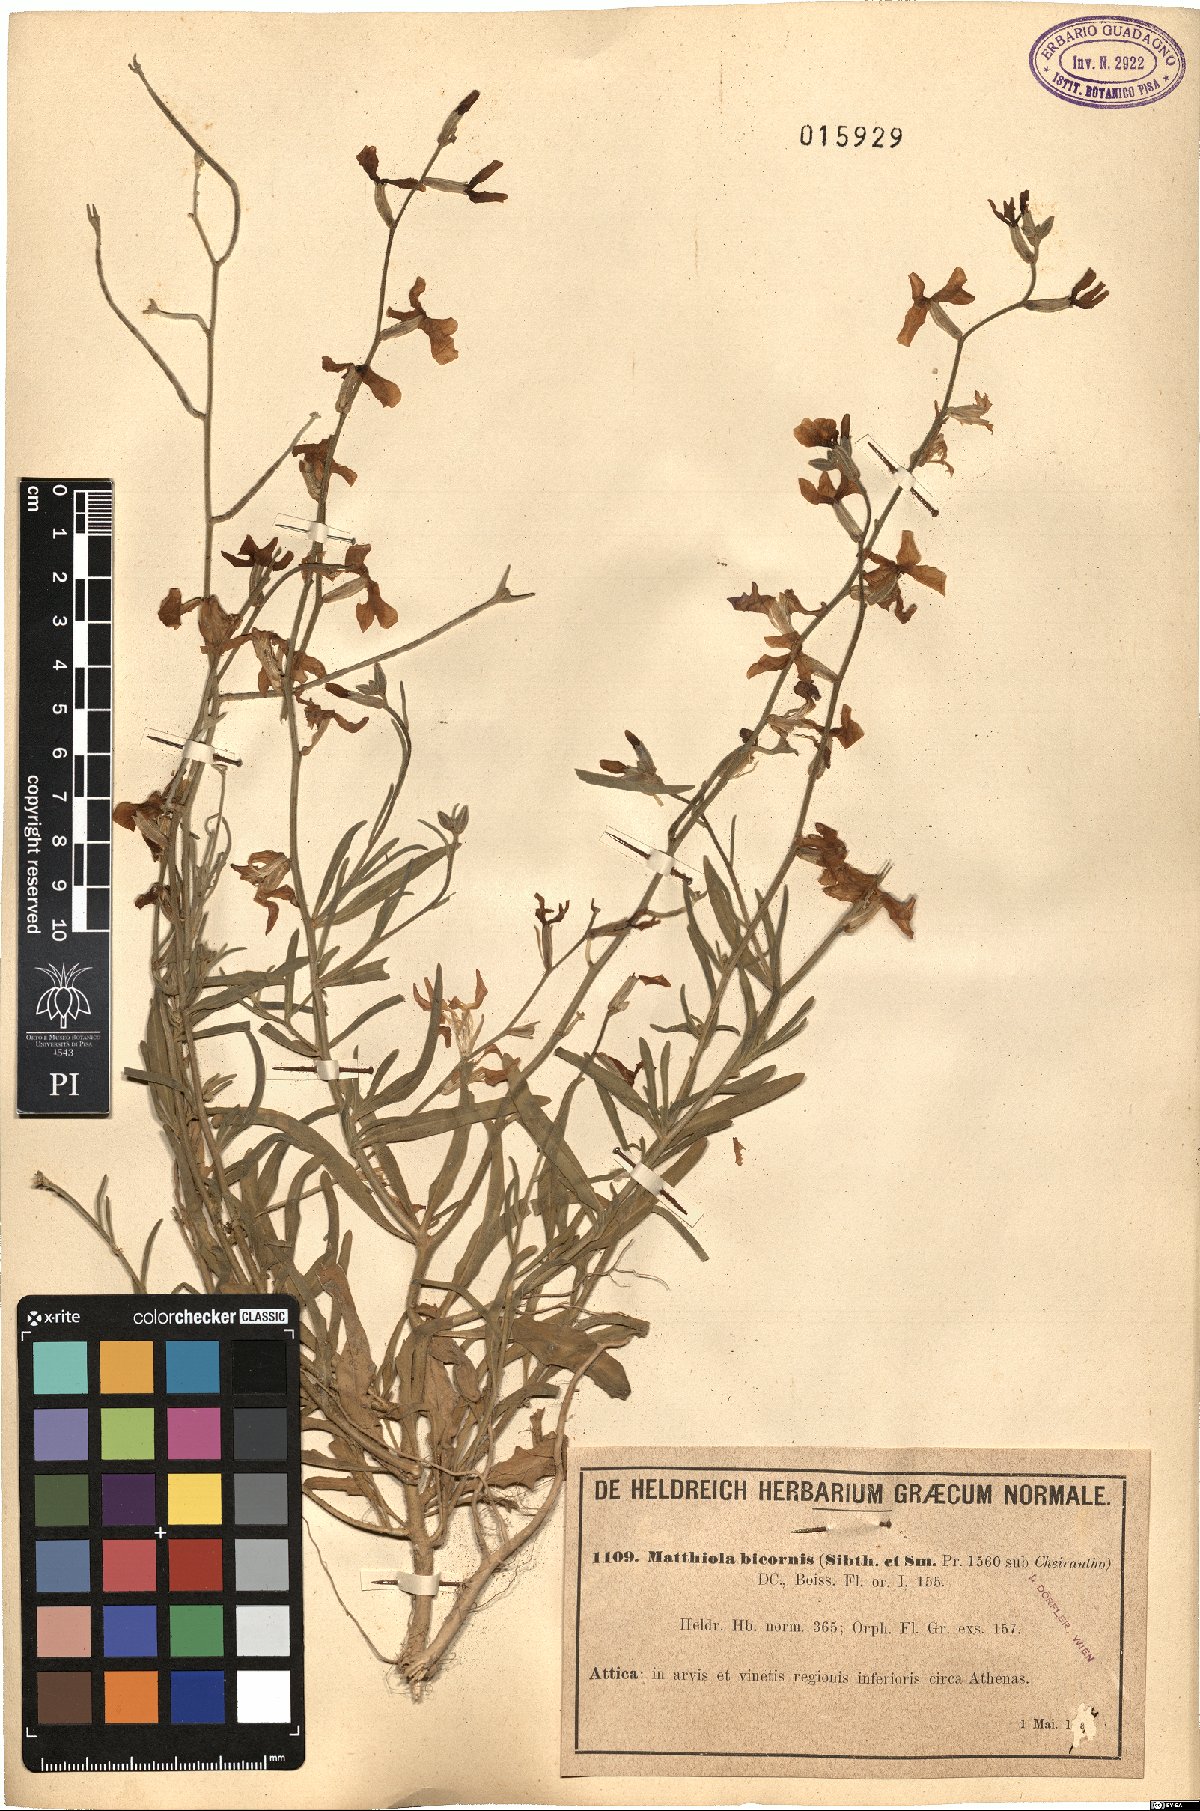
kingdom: Plantae
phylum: Tracheophyta
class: Magnoliopsida
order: Brassicales
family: Brassicaceae
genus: Matthiola
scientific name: Matthiola longipetala
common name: Night-scented stock
